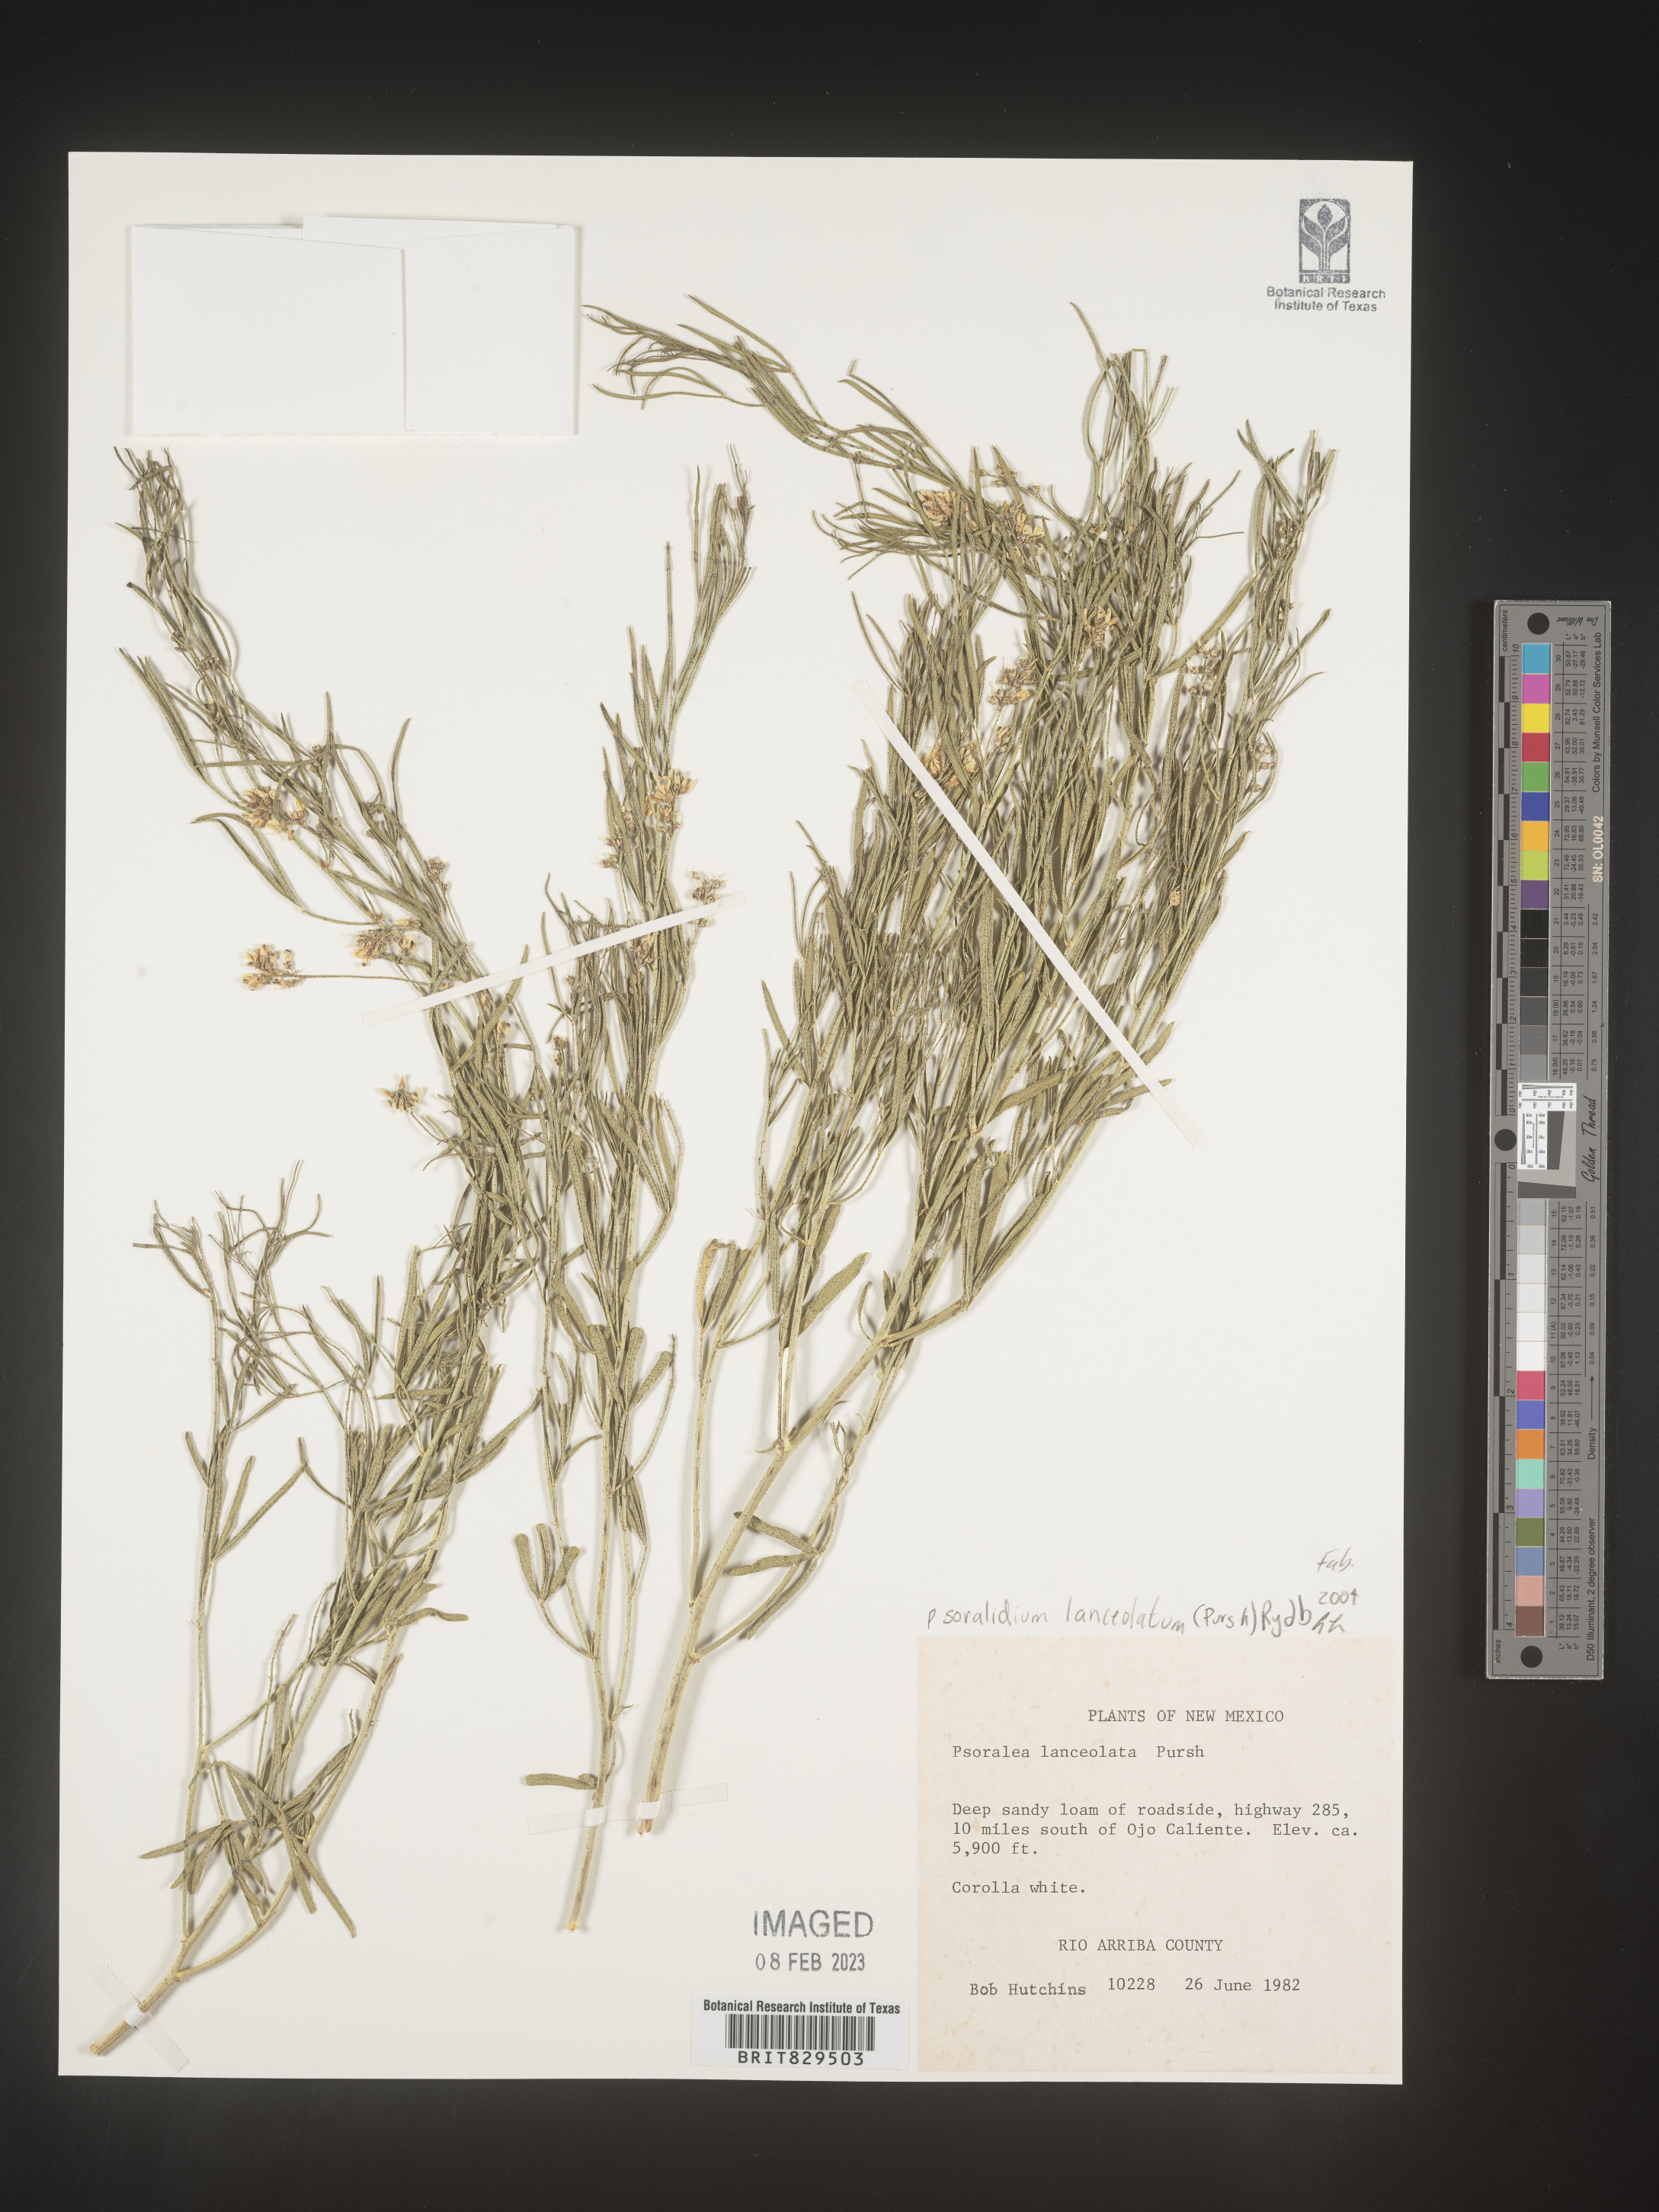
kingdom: Plantae
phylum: Tracheophyta
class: Magnoliopsida
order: Fabales
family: Fabaceae
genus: Ladeania
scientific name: Ladeania lanceolata
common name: Dune scurf-pea
